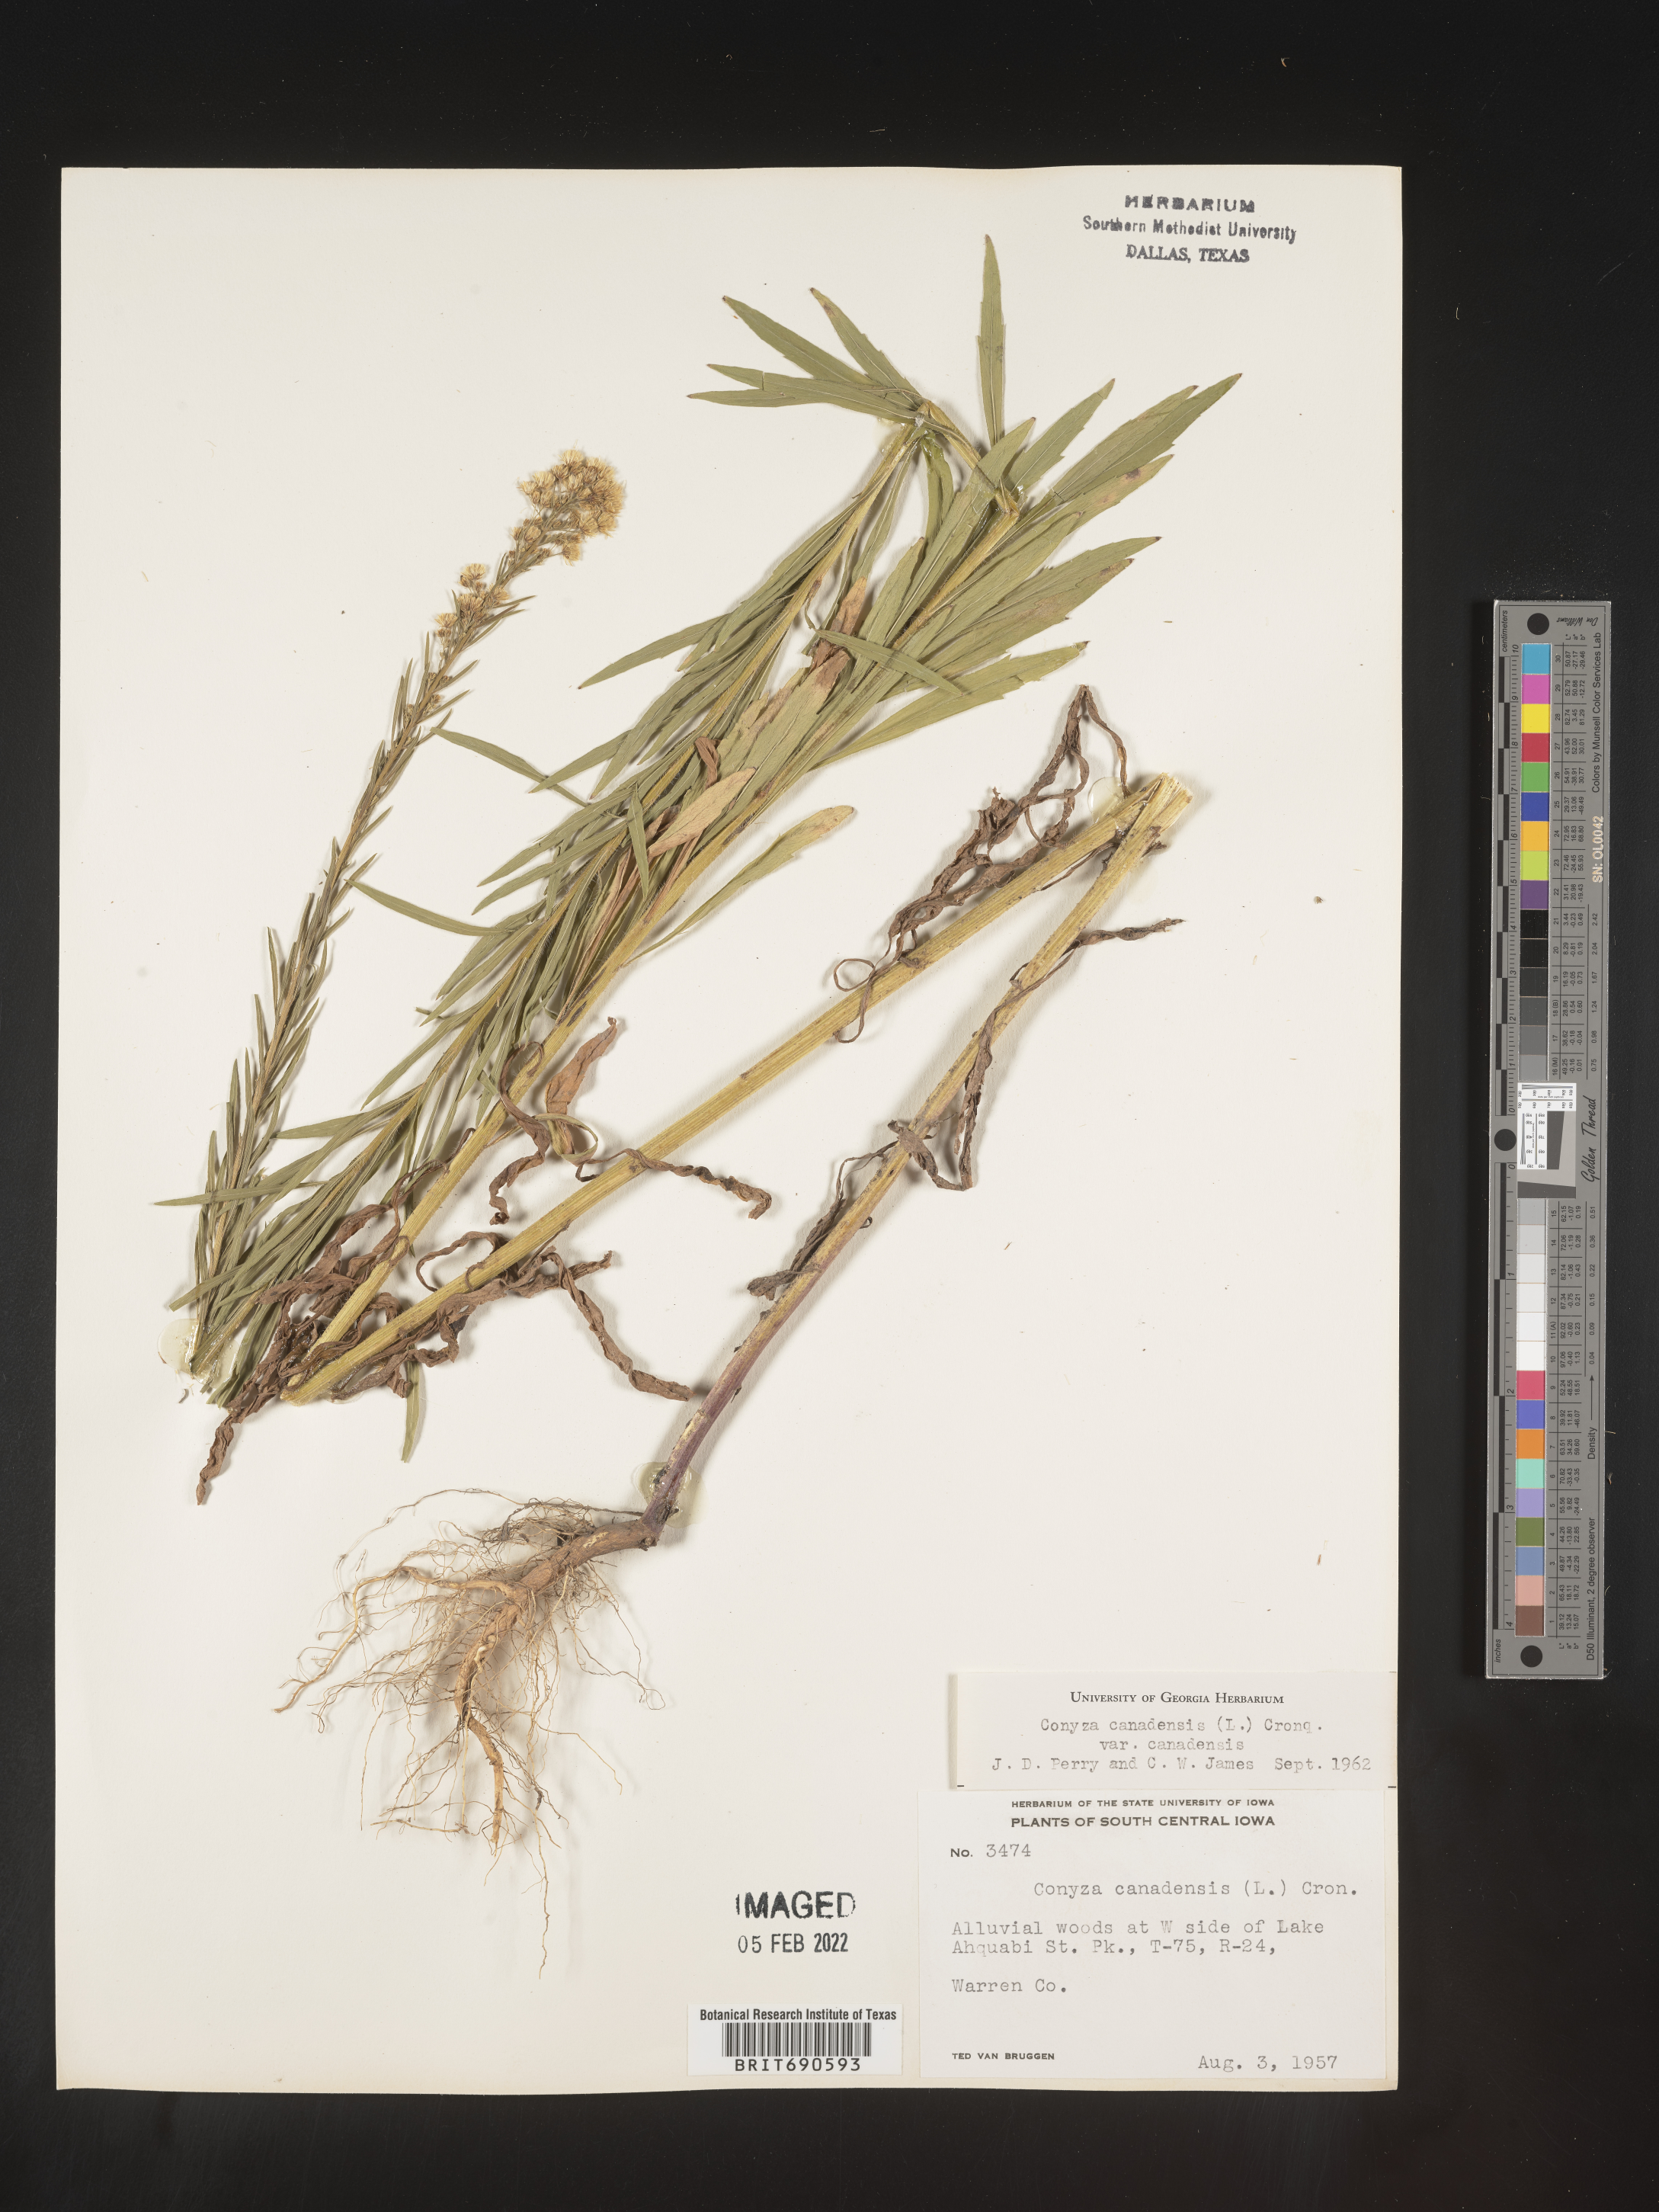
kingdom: Plantae
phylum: Tracheophyta
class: Magnoliopsida
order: Asterales
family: Asteraceae
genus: Erigeron
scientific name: Erigeron canadensis
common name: Canadian fleabane
